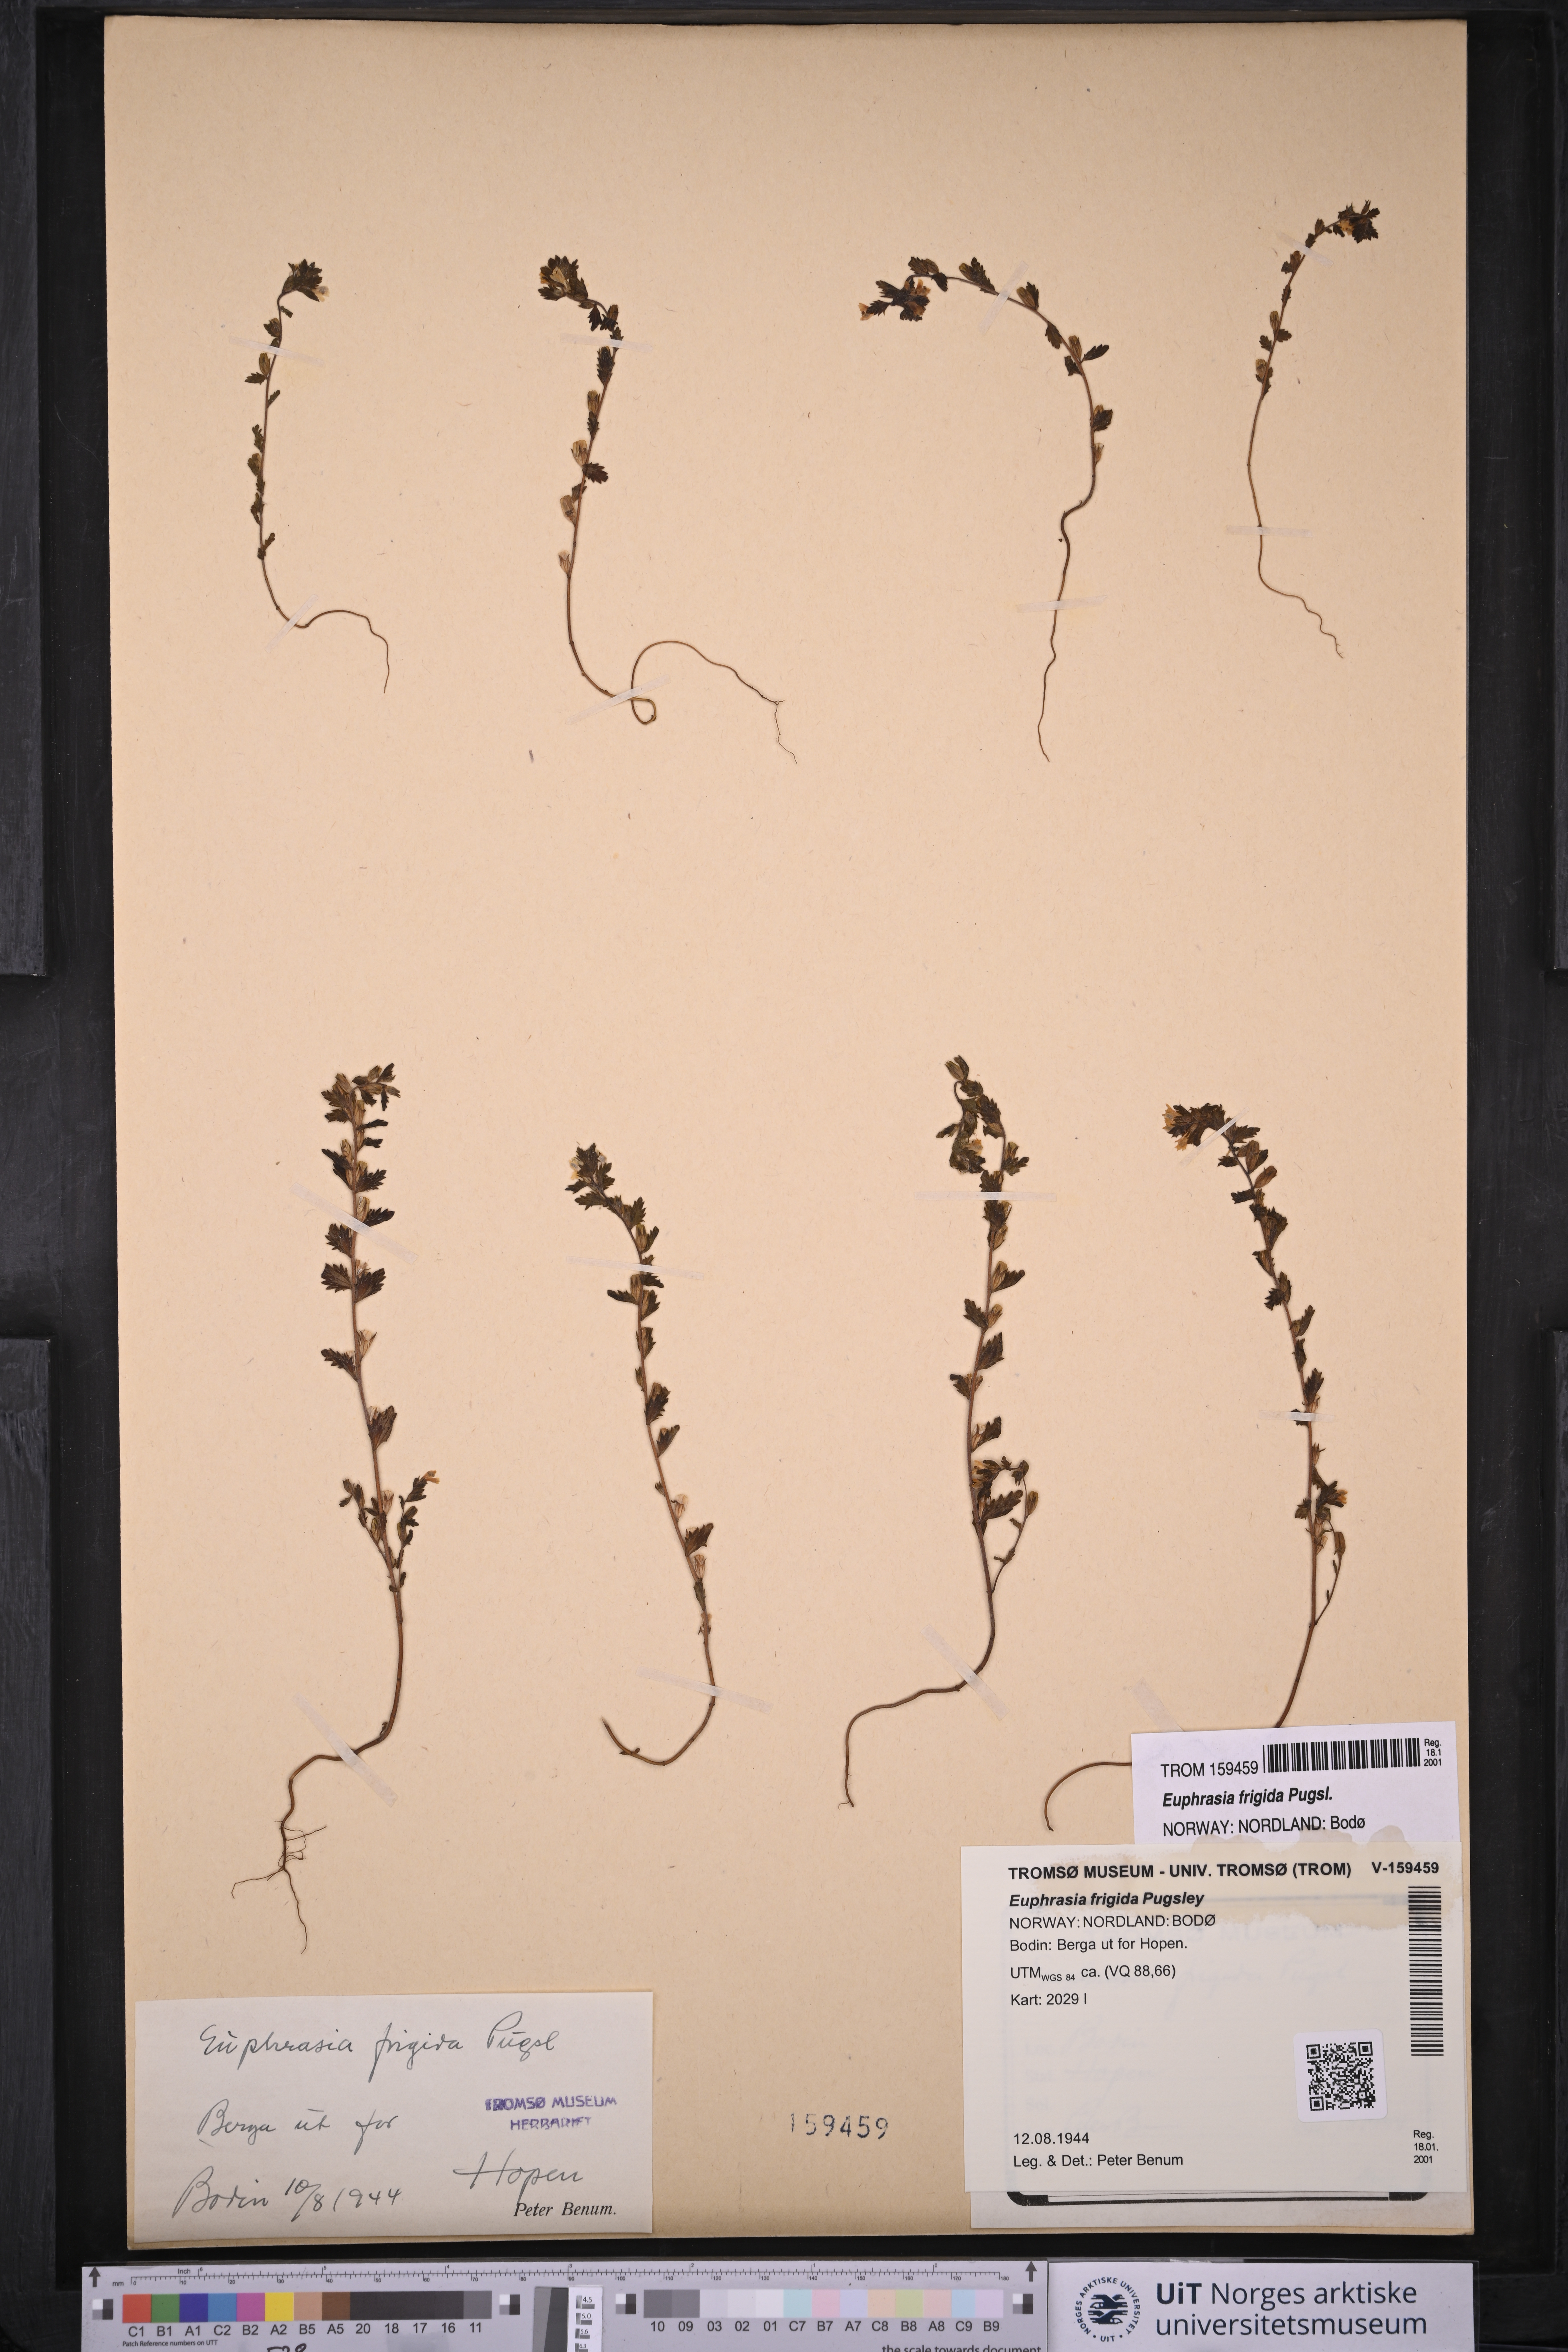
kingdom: Plantae
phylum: Tracheophyta
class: Magnoliopsida
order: Lamiales
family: Orobanchaceae
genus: Euphrasia
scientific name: Euphrasia frigida
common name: An eyebright
